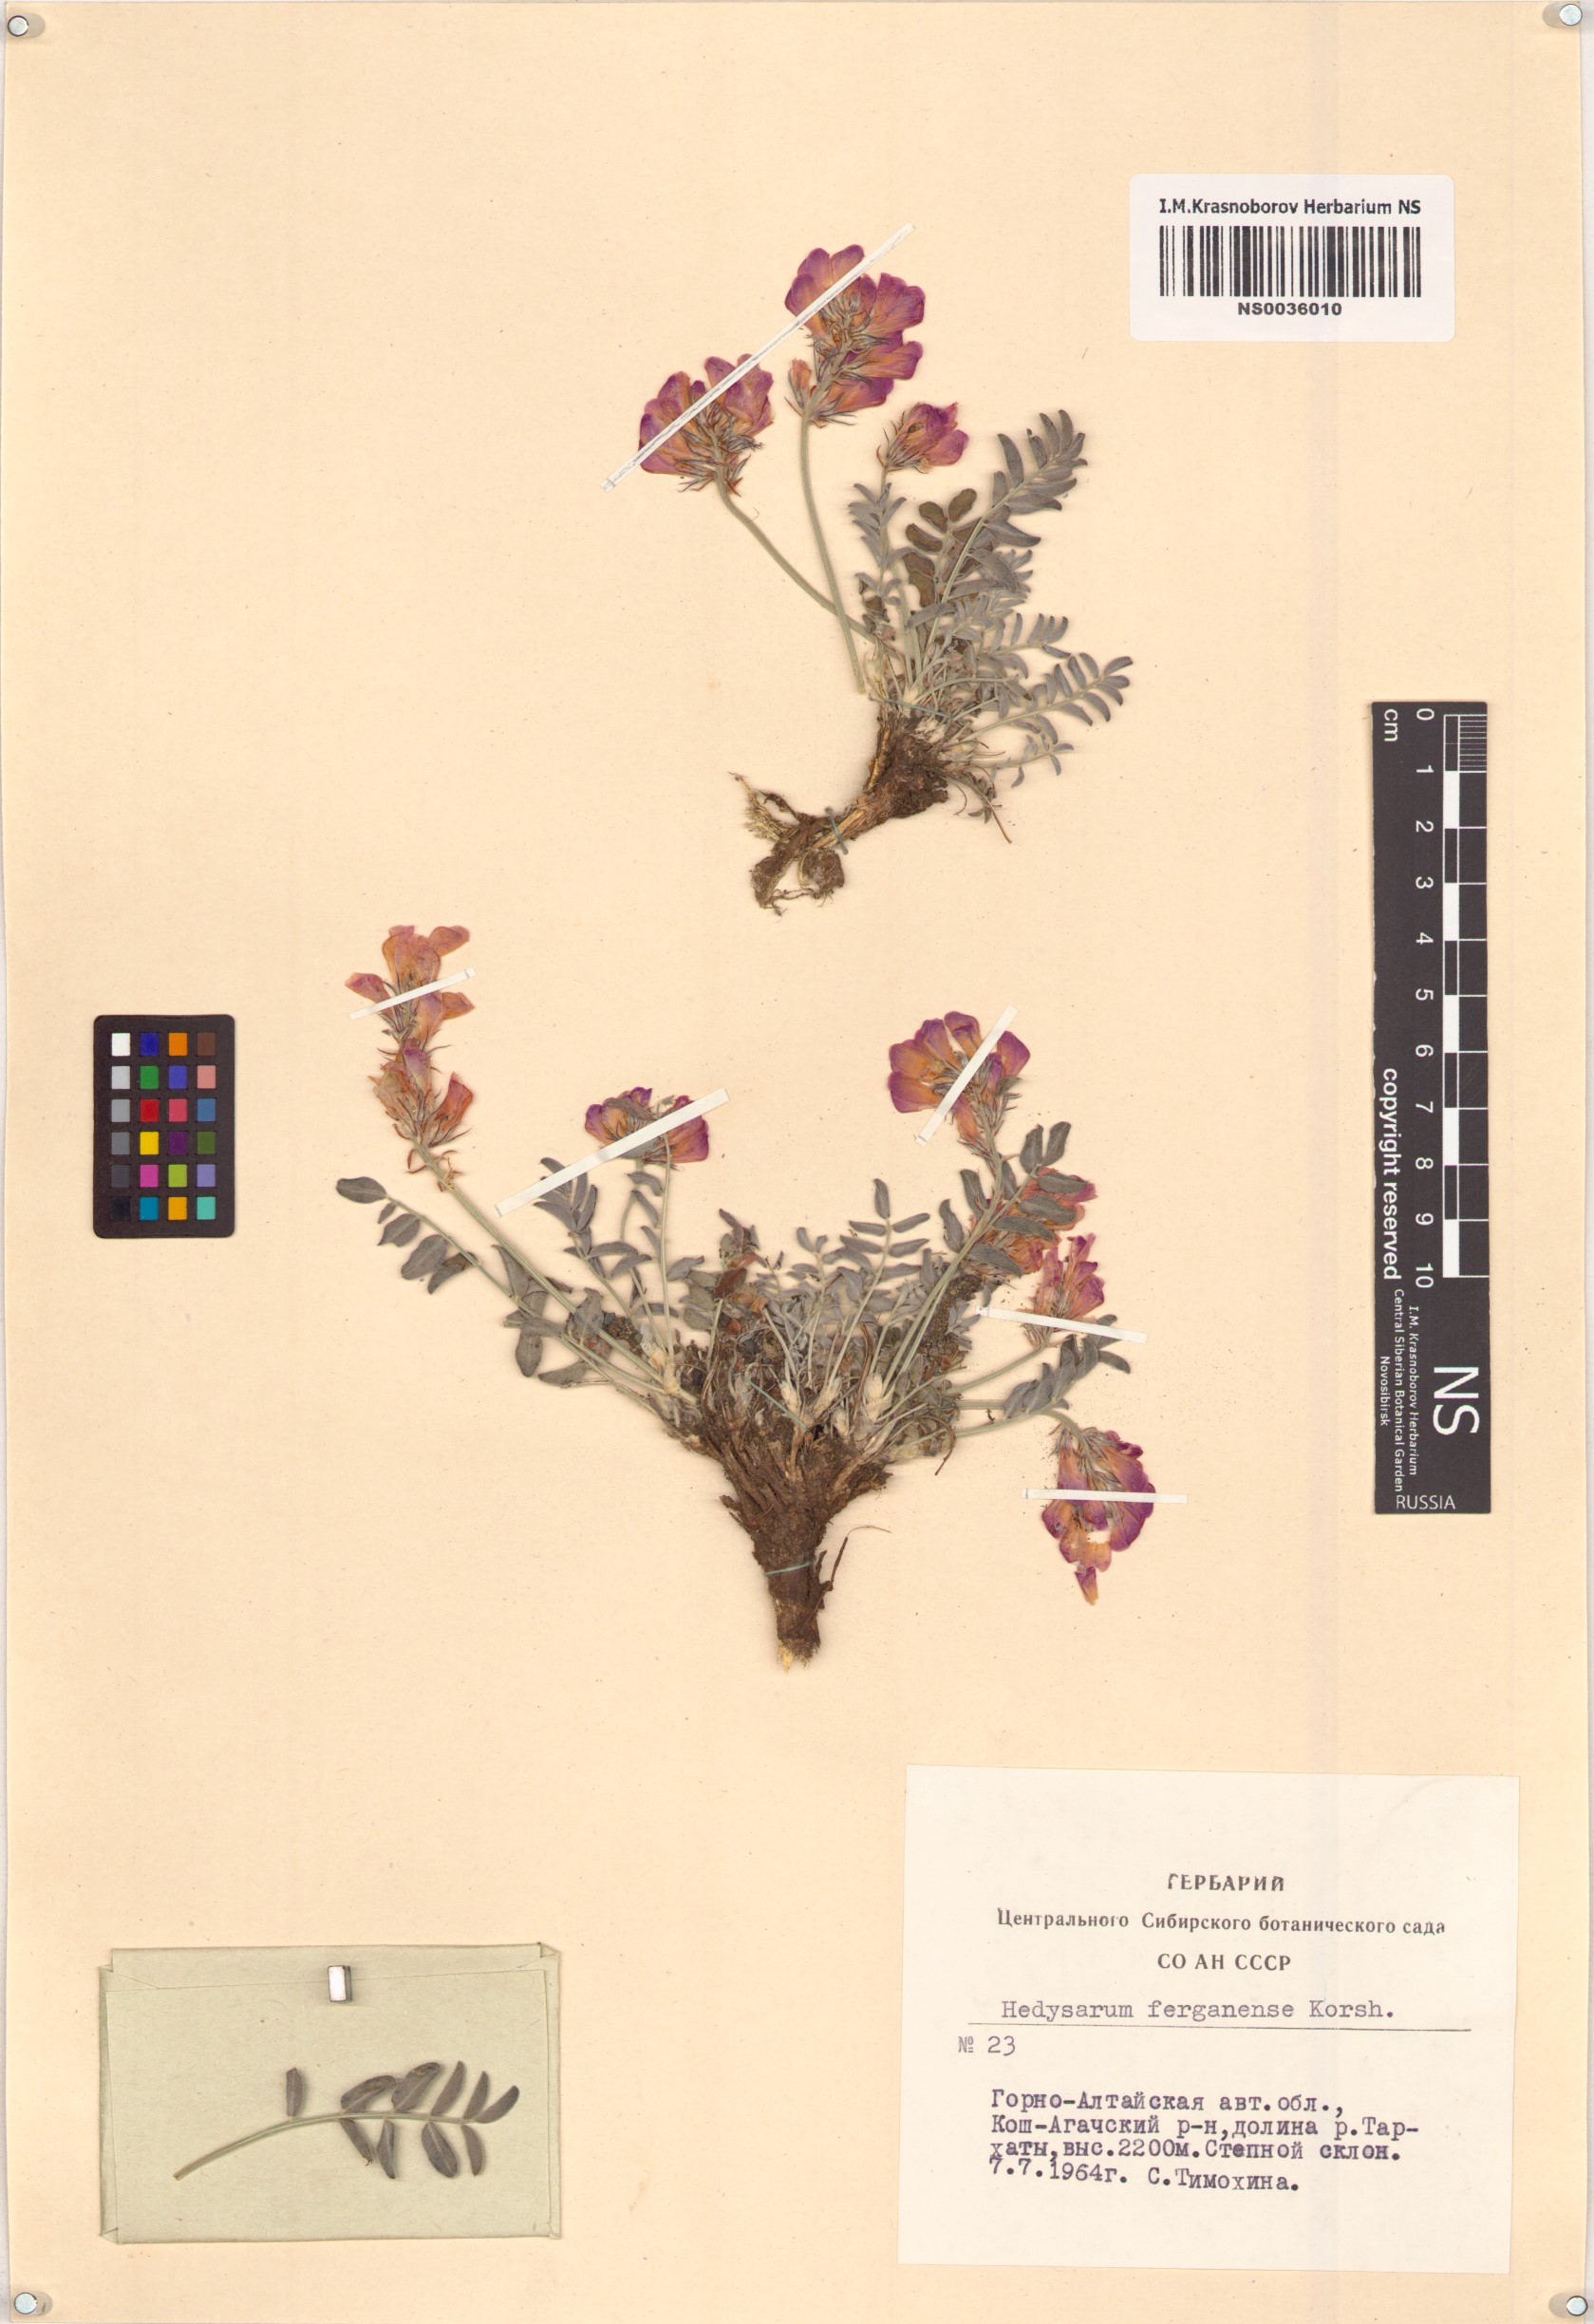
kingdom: Plantae
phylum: Tracheophyta
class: Magnoliopsida
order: Fabales
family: Fabaceae
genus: Hedysarum
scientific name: Hedysarum ferganense
